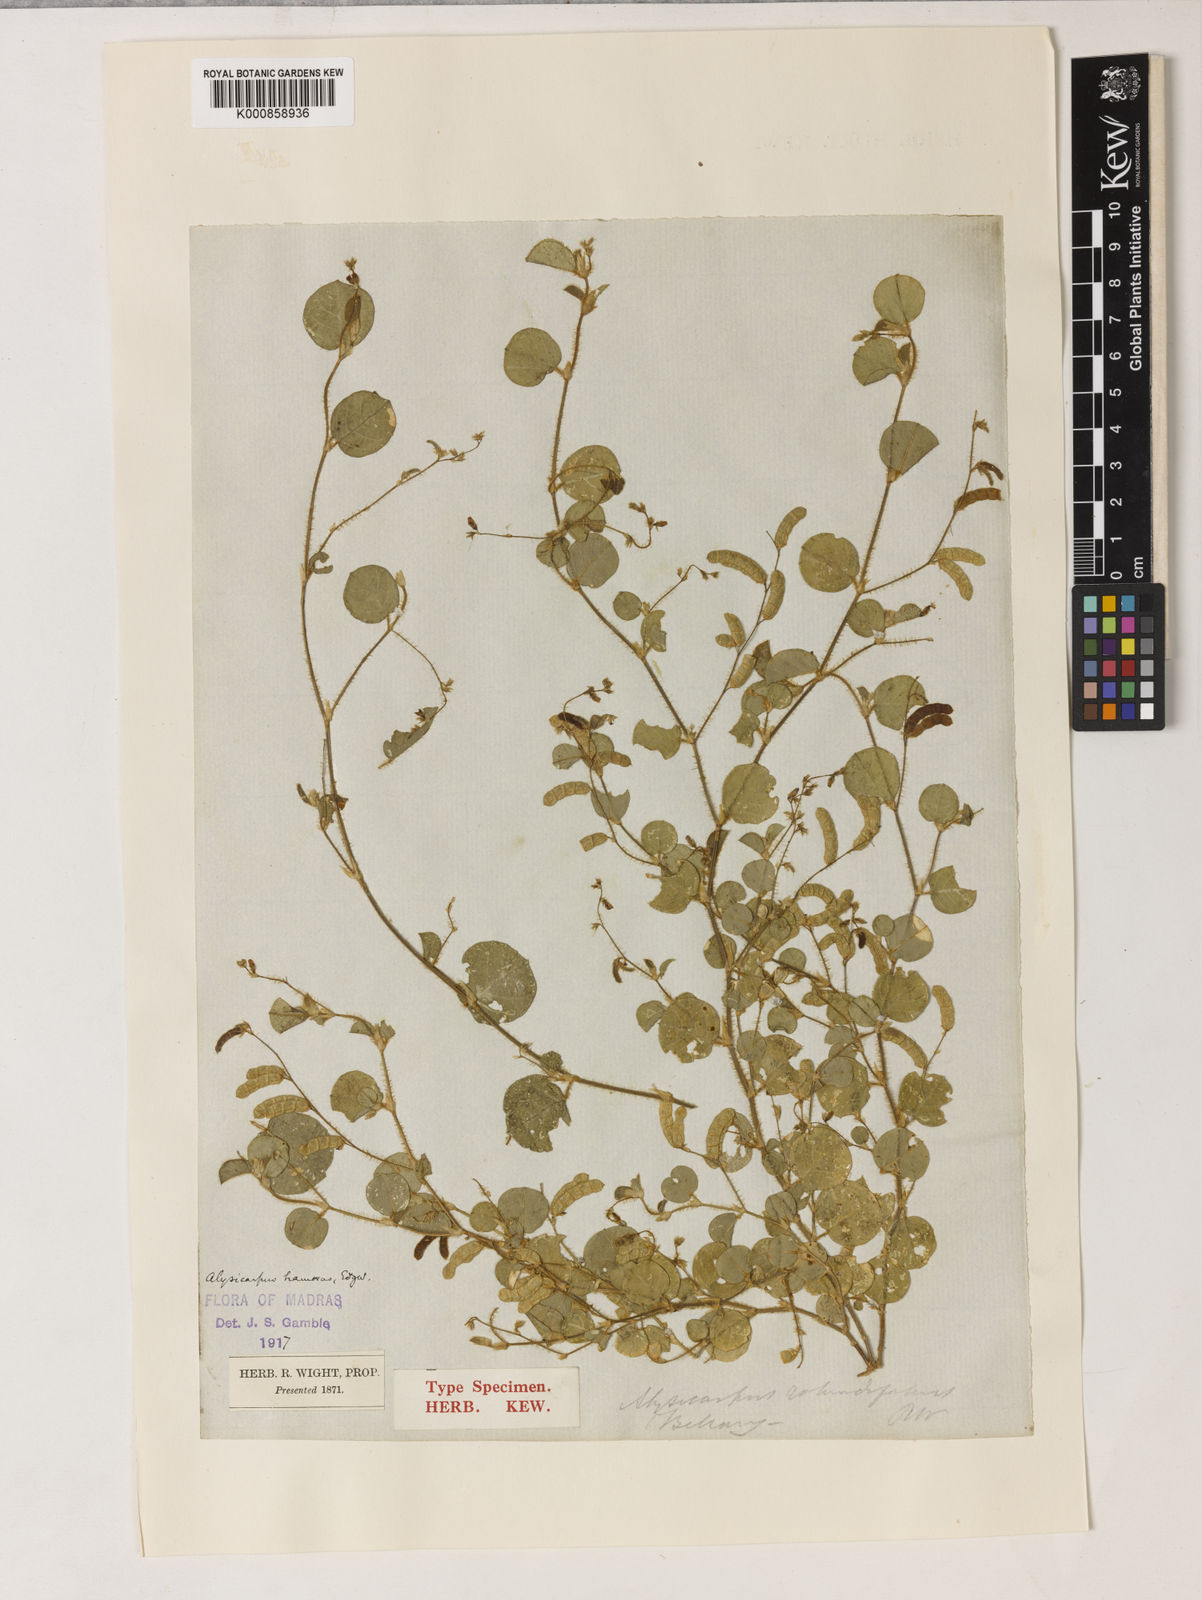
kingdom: Plantae
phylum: Tracheophyta
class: Magnoliopsida
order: Fabales
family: Fabaceae
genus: Alysicarpus
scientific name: Alysicarpus hamosus
